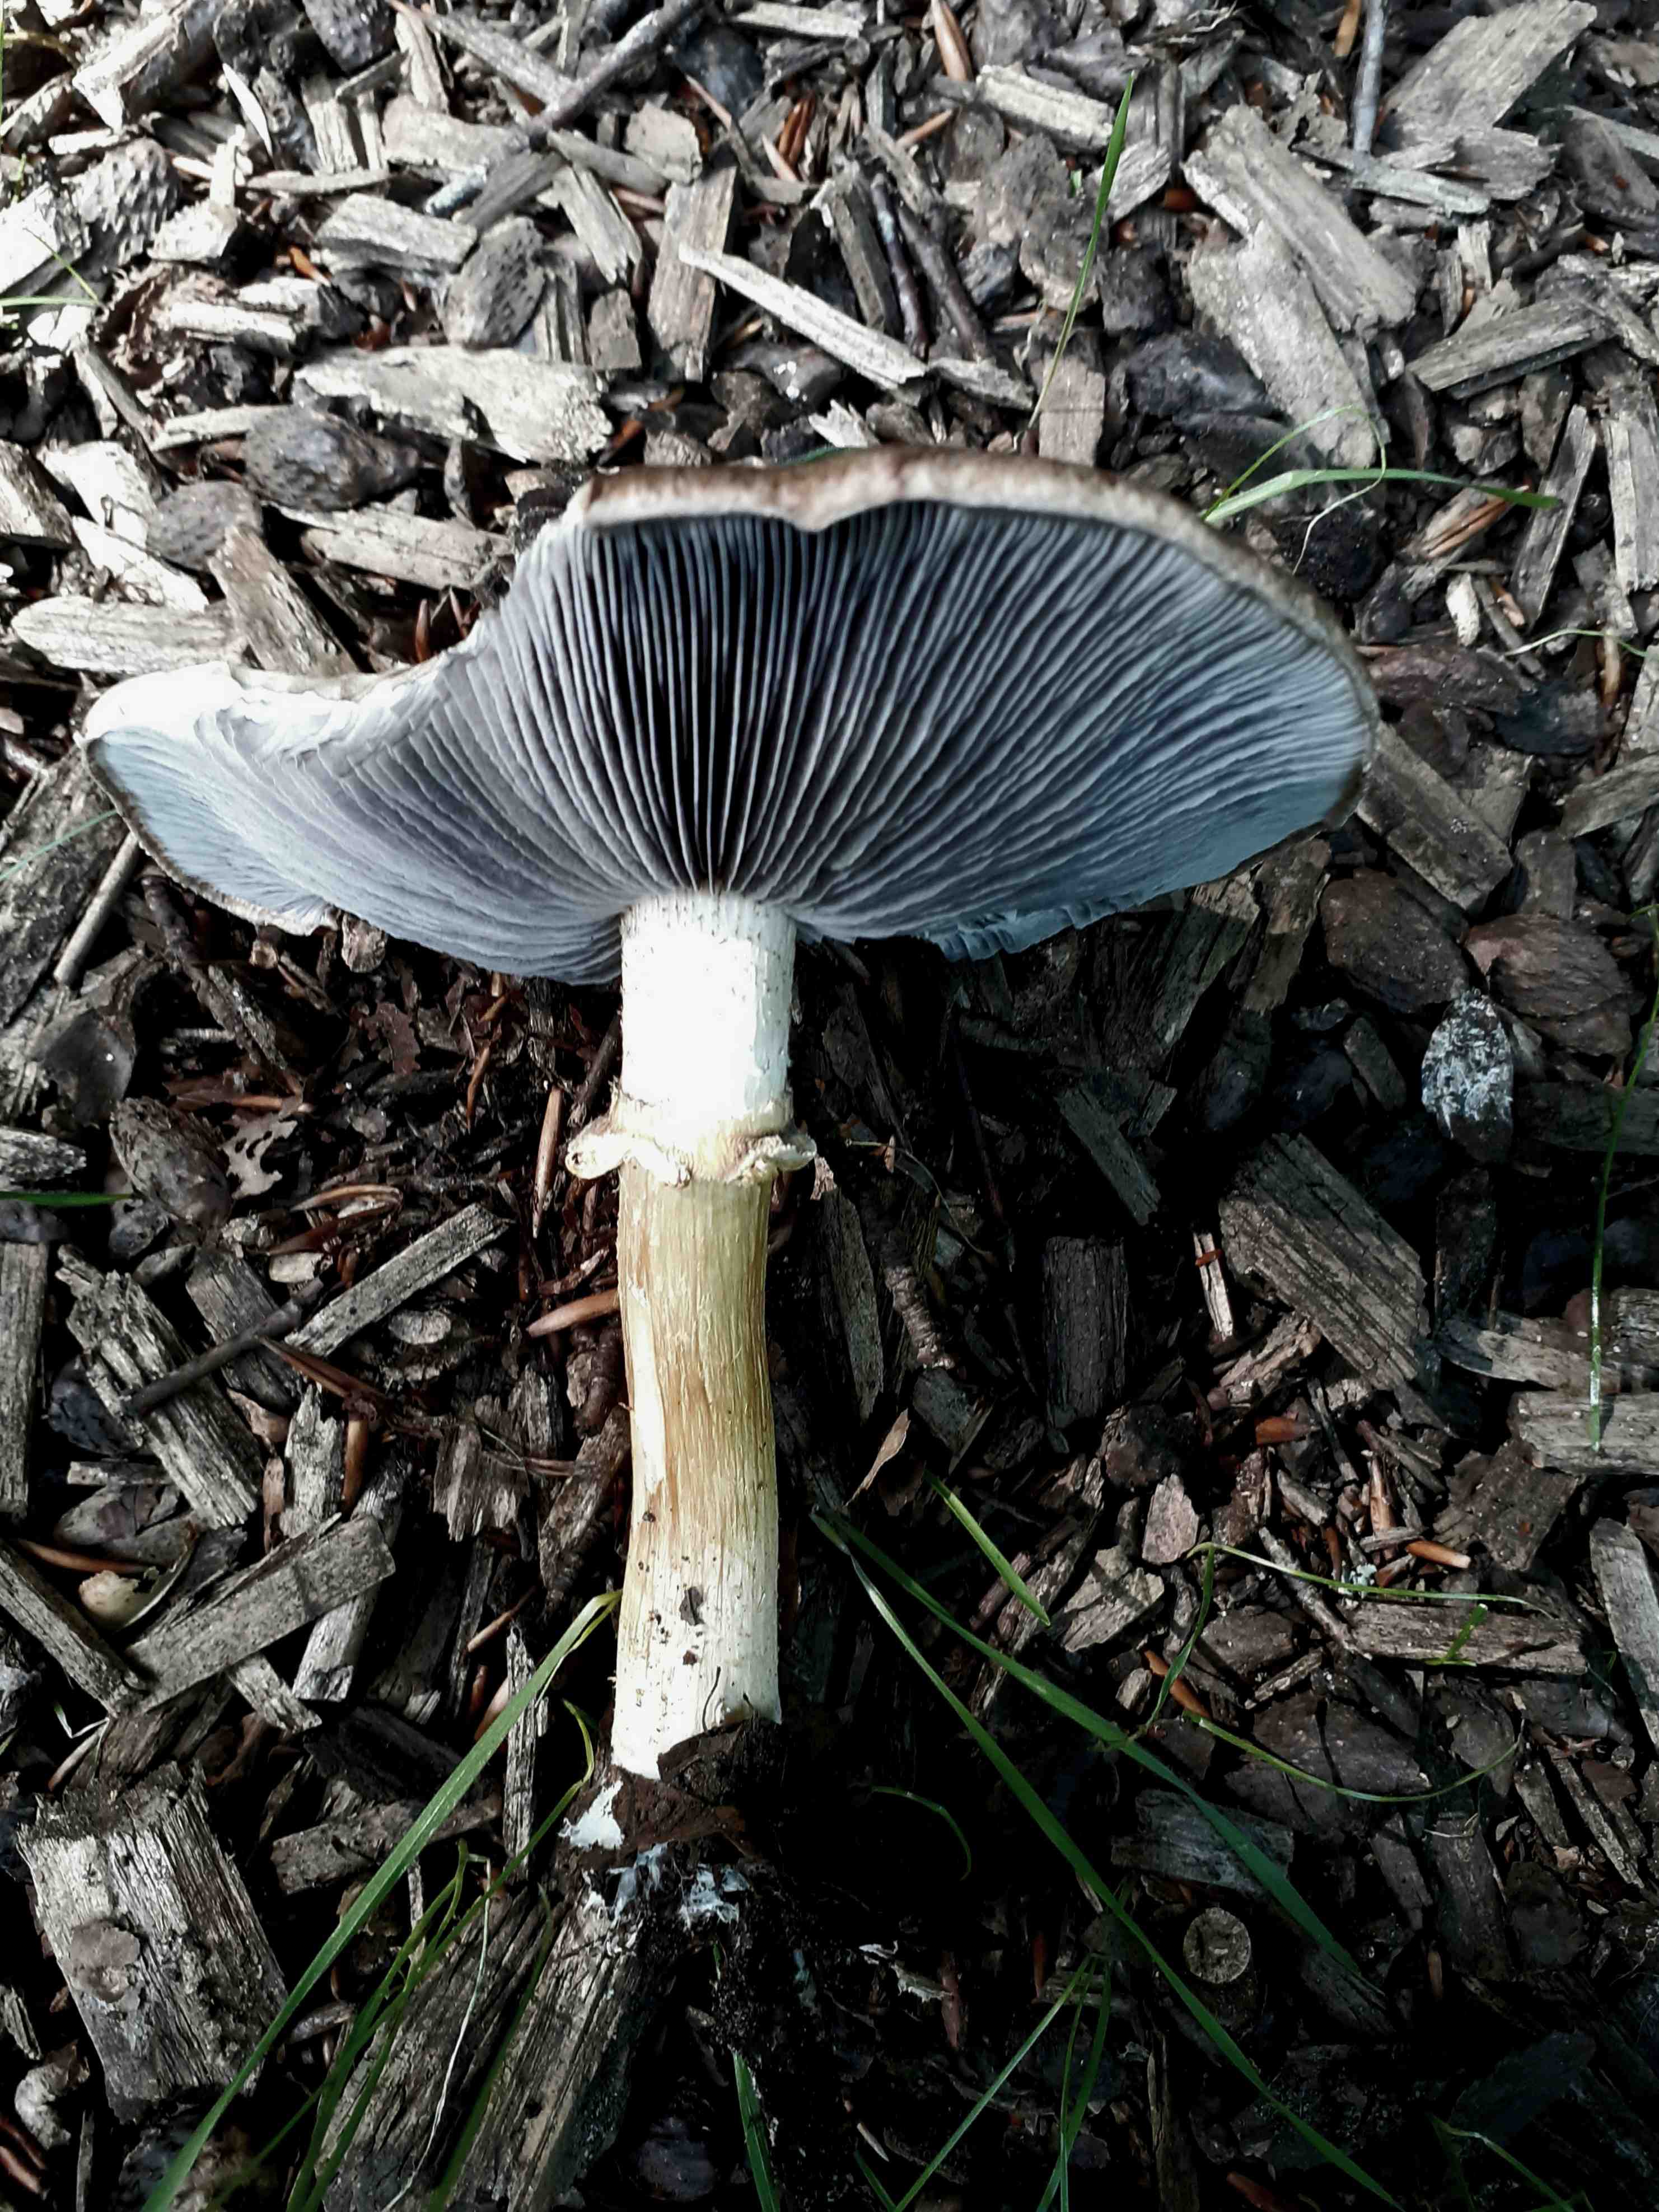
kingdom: Fungi
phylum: Basidiomycota
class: Agaricomycetes
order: Agaricales
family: Strophariaceae
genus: Stropharia
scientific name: Stropharia rugosoannulata
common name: rødbrun bredblad
